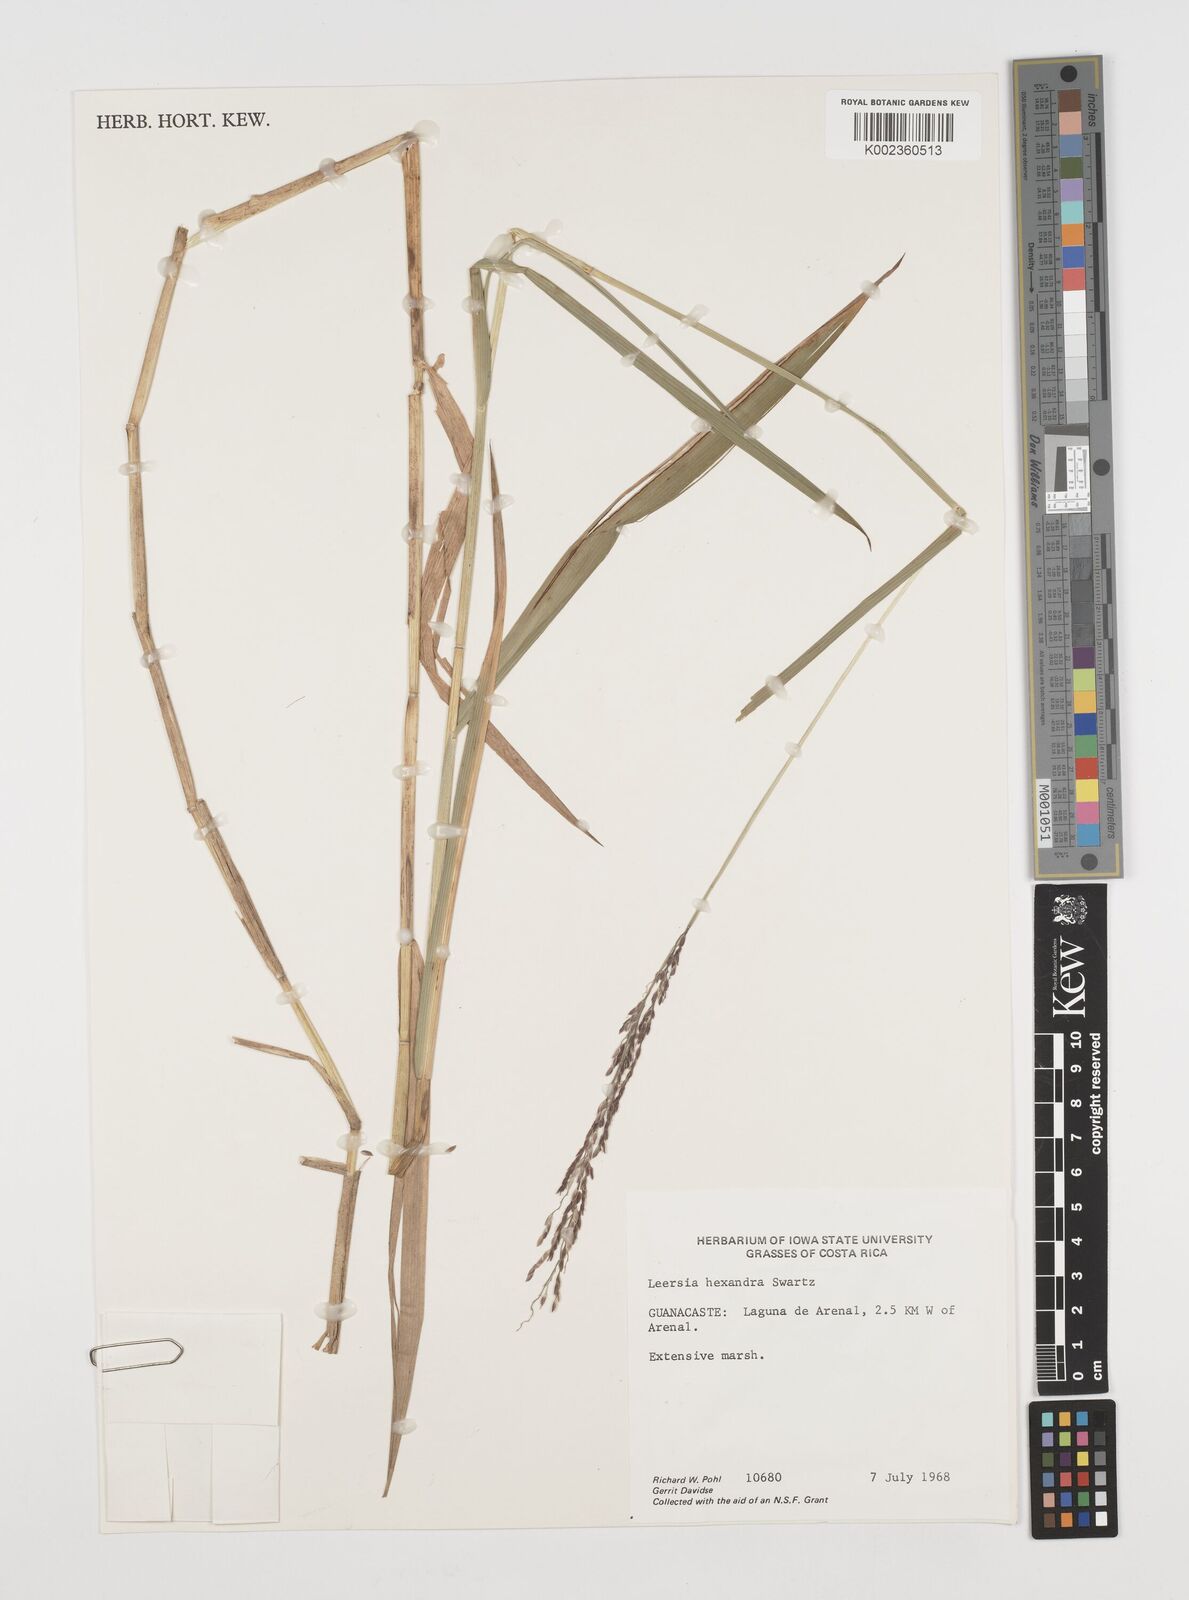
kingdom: Plantae
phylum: Tracheophyta
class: Liliopsida
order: Poales
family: Poaceae
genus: Leersia
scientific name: Leersia hexandra
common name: Southern cut grass
